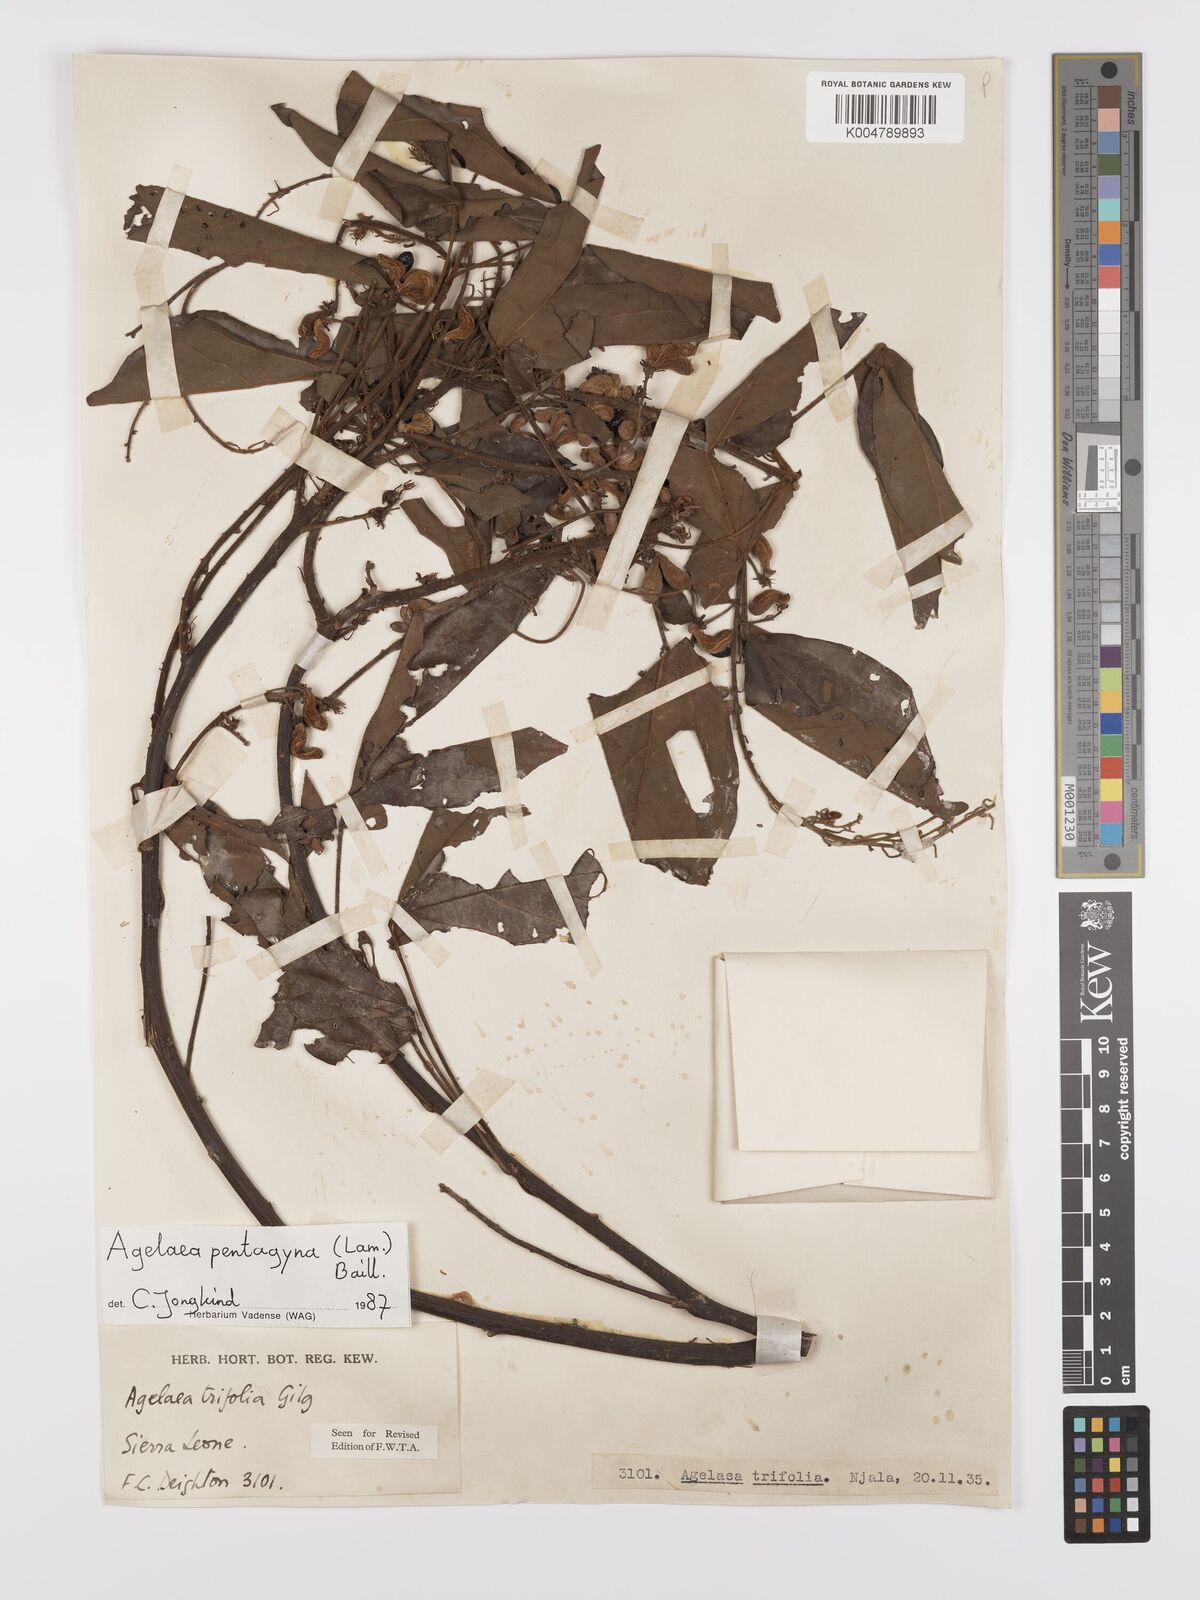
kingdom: Plantae
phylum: Tracheophyta
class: Magnoliopsida
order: Oxalidales
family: Connaraceae
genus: Agelaea
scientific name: Agelaea pentagyna
